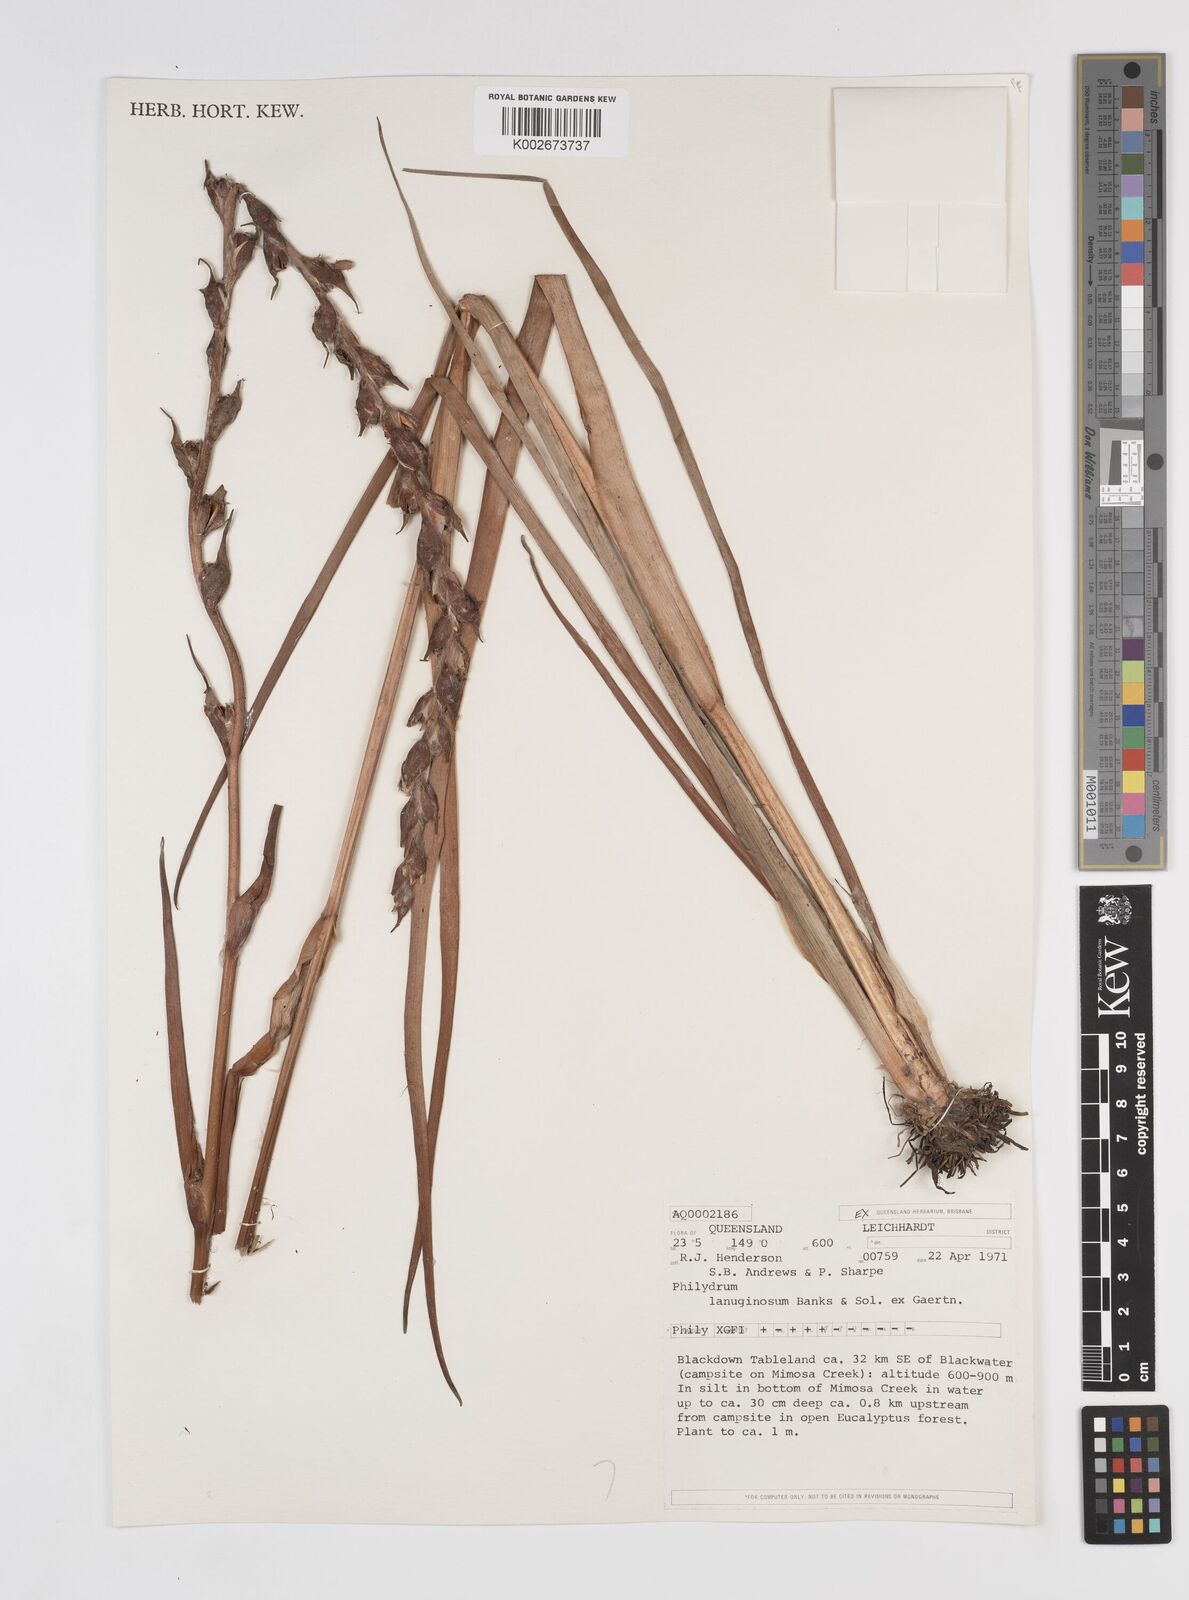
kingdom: Plantae
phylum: Tracheophyta
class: Liliopsida
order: Commelinales
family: Philydraceae
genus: Philydrum
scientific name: Philydrum lanuginosum
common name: Woolly frog's mouth
